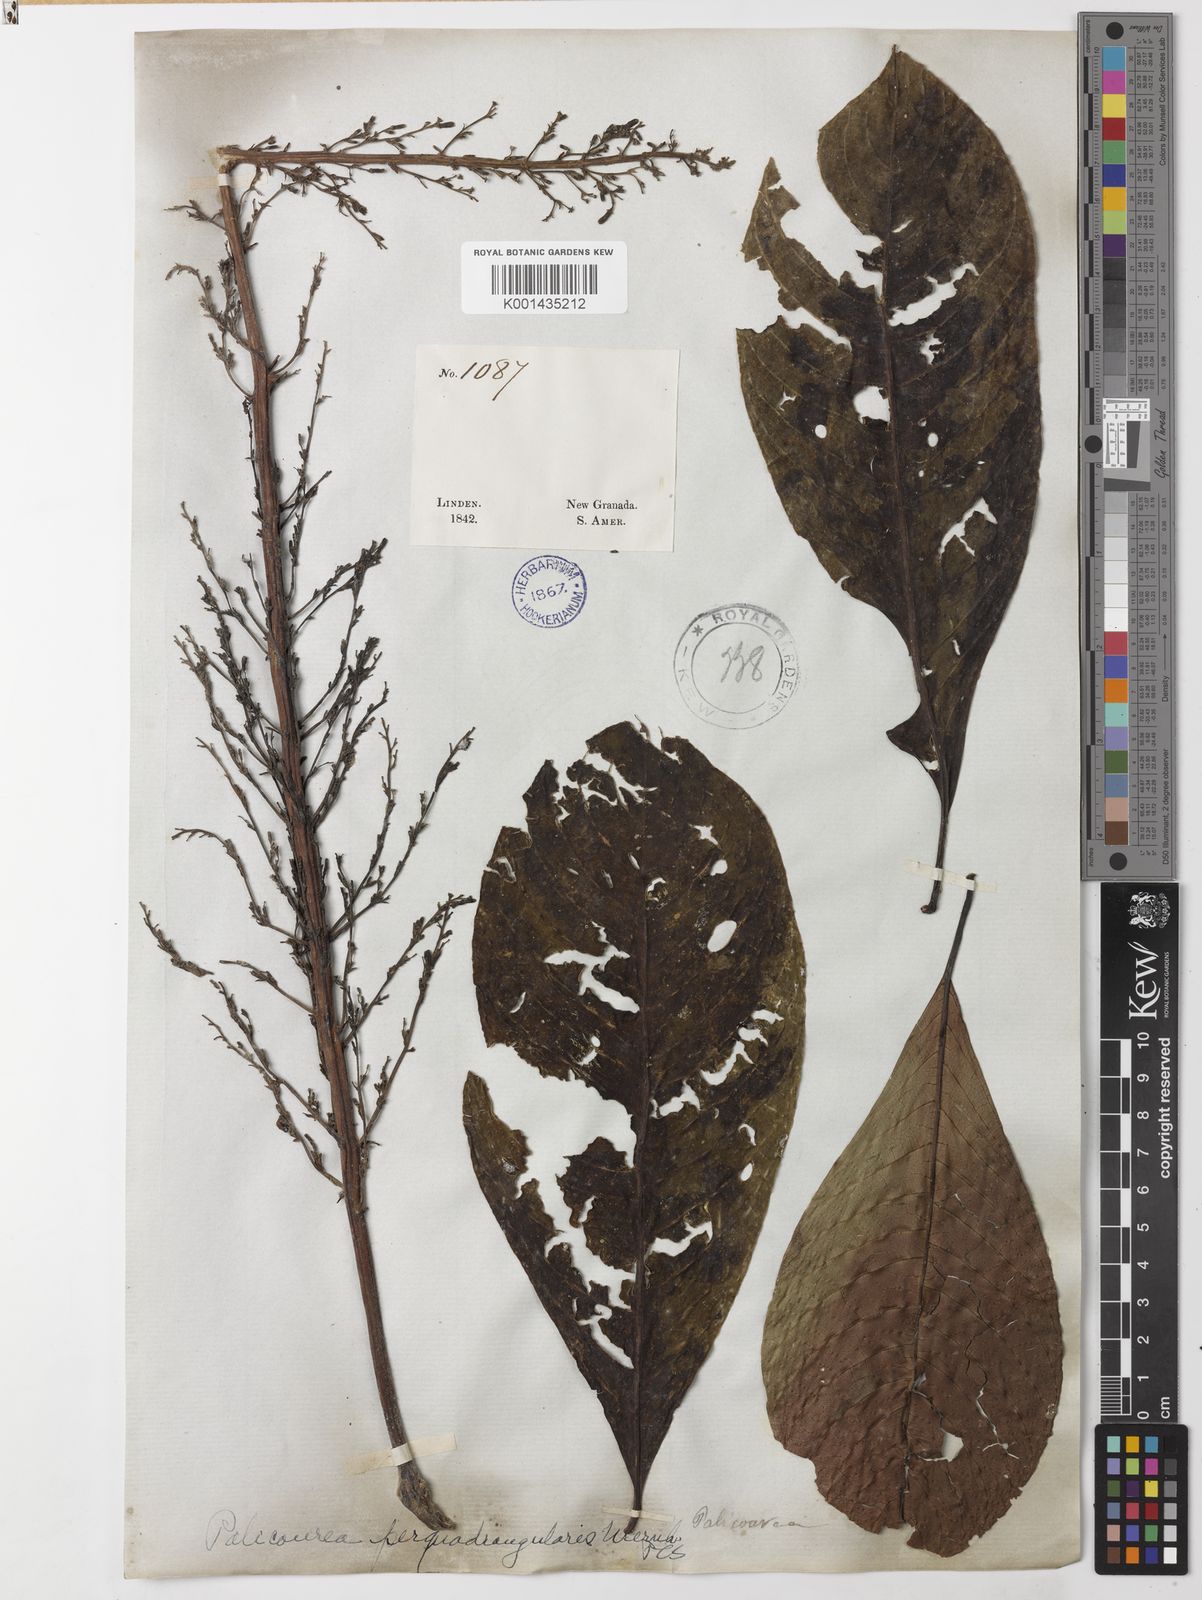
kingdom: Plantae
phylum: Tracheophyta
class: Magnoliopsida
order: Gentianales
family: Rubiaceae
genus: Palicourea
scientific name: Palicourea perquadrangularis
